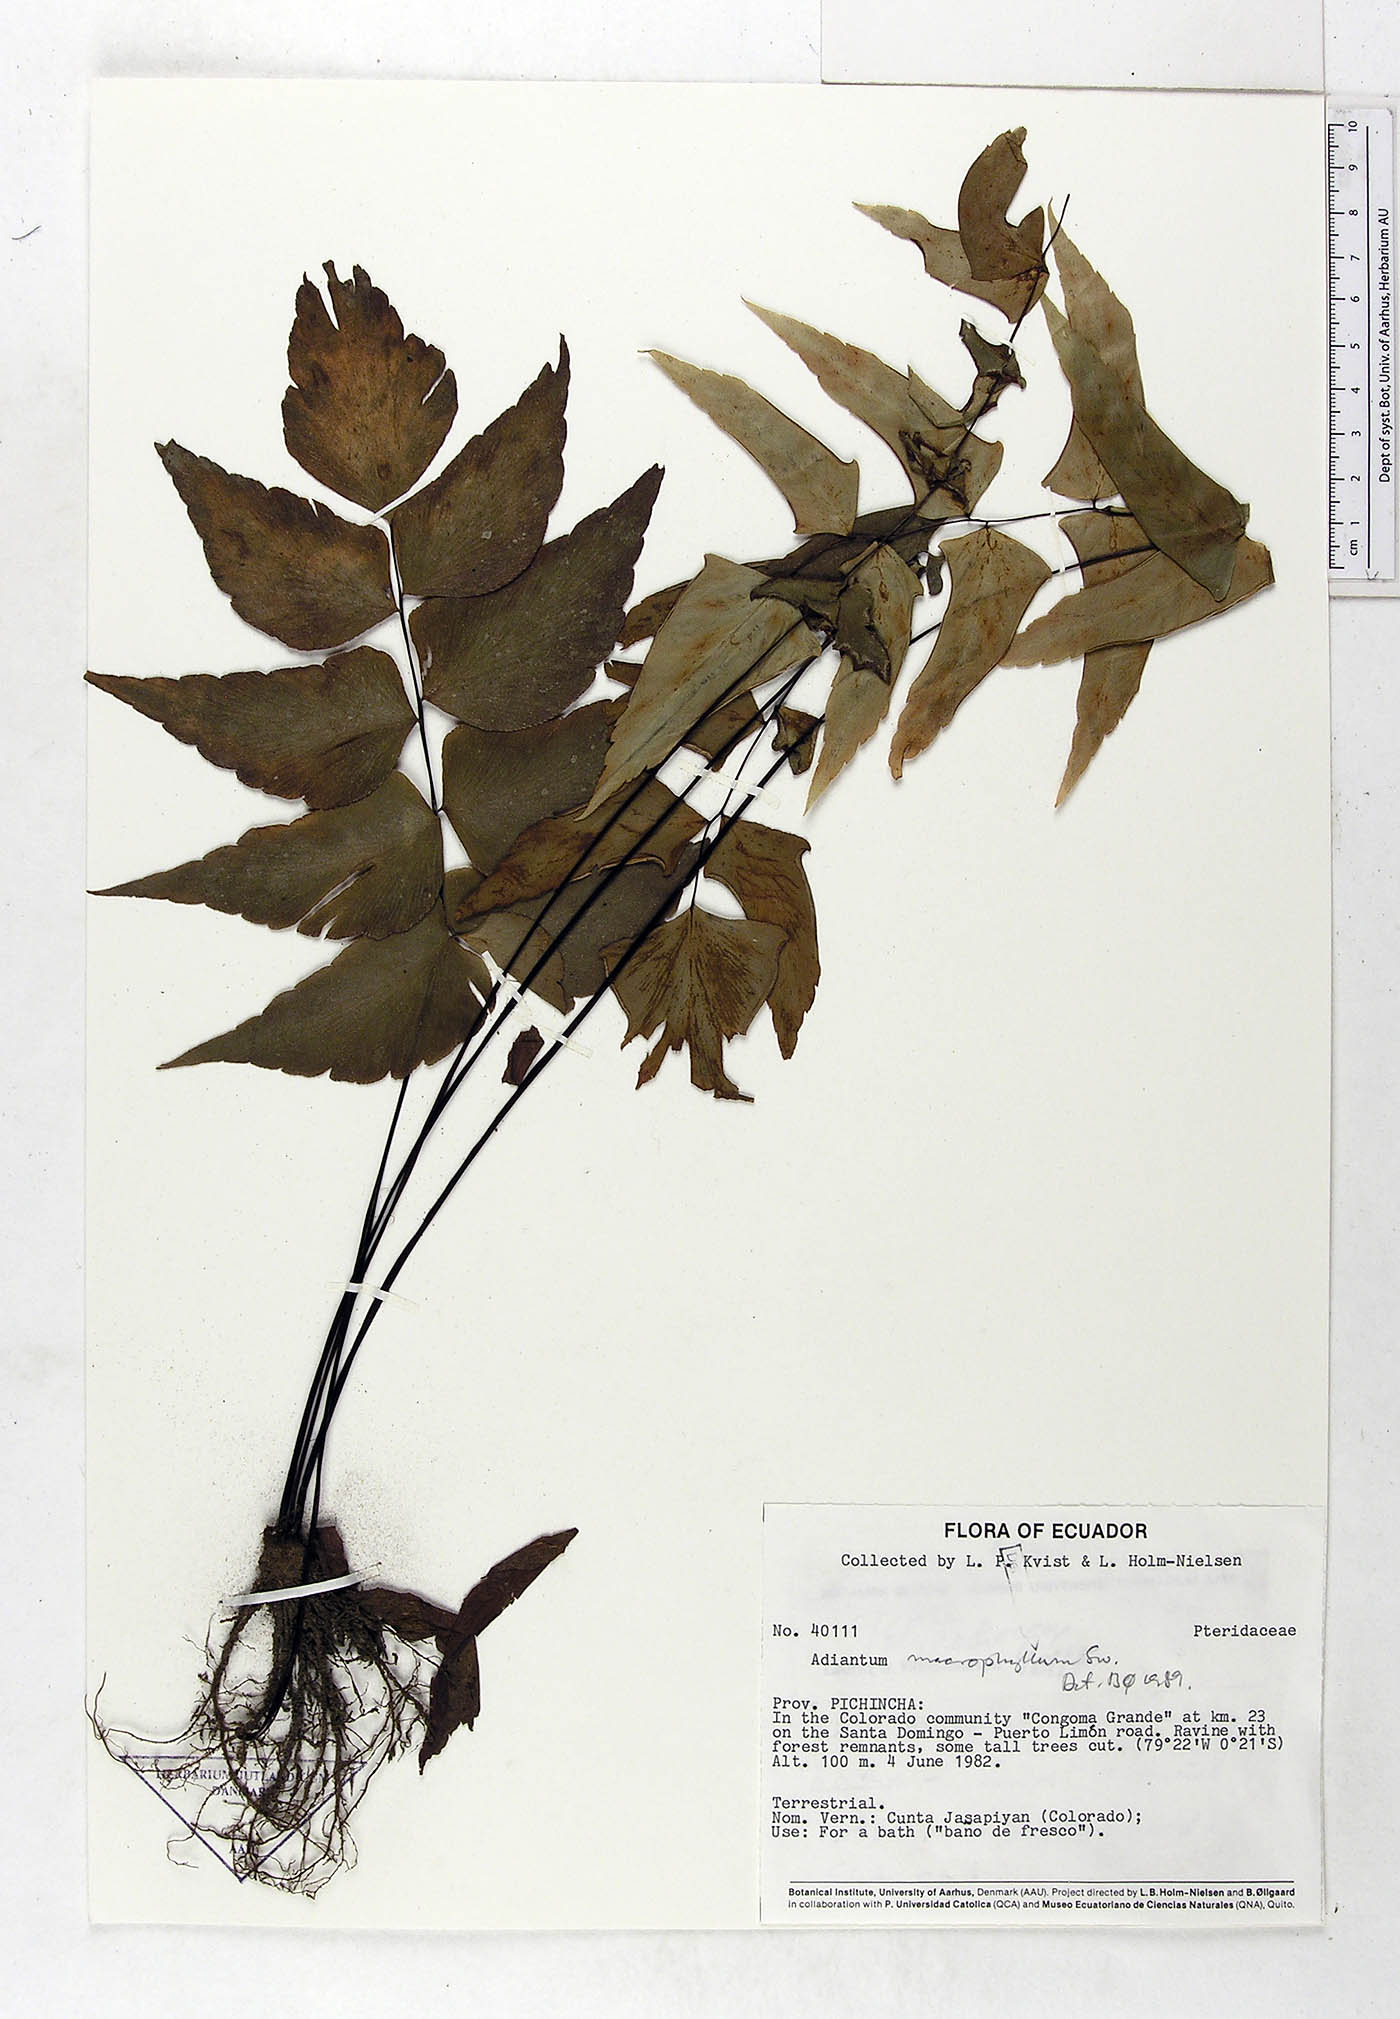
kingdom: Plantae
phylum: Tracheophyta
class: Polypodiopsida
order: Polypodiales
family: Pteridaceae
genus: Adiantum
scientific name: Adiantum macrophyllum
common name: Largeleaf maidenhair
